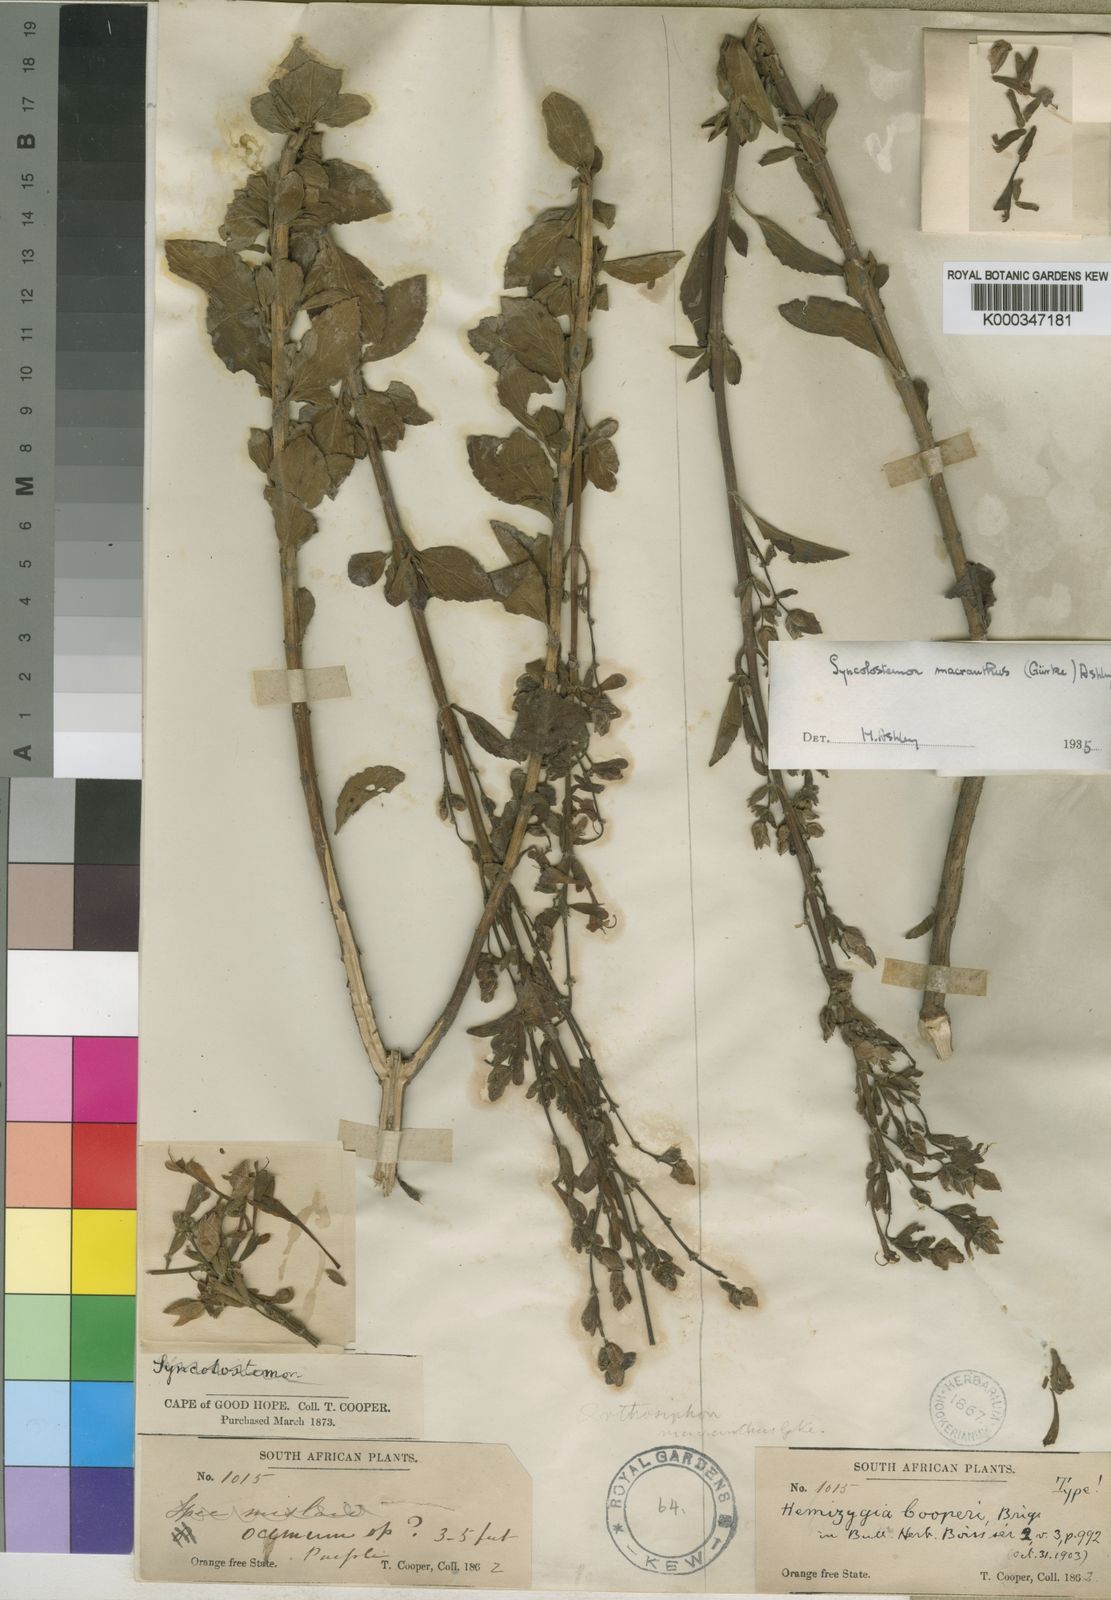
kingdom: Plantae
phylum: Tracheophyta
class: Magnoliopsida
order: Lamiales
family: Lamiaceae
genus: Syncolostemon
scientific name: Syncolostemon
